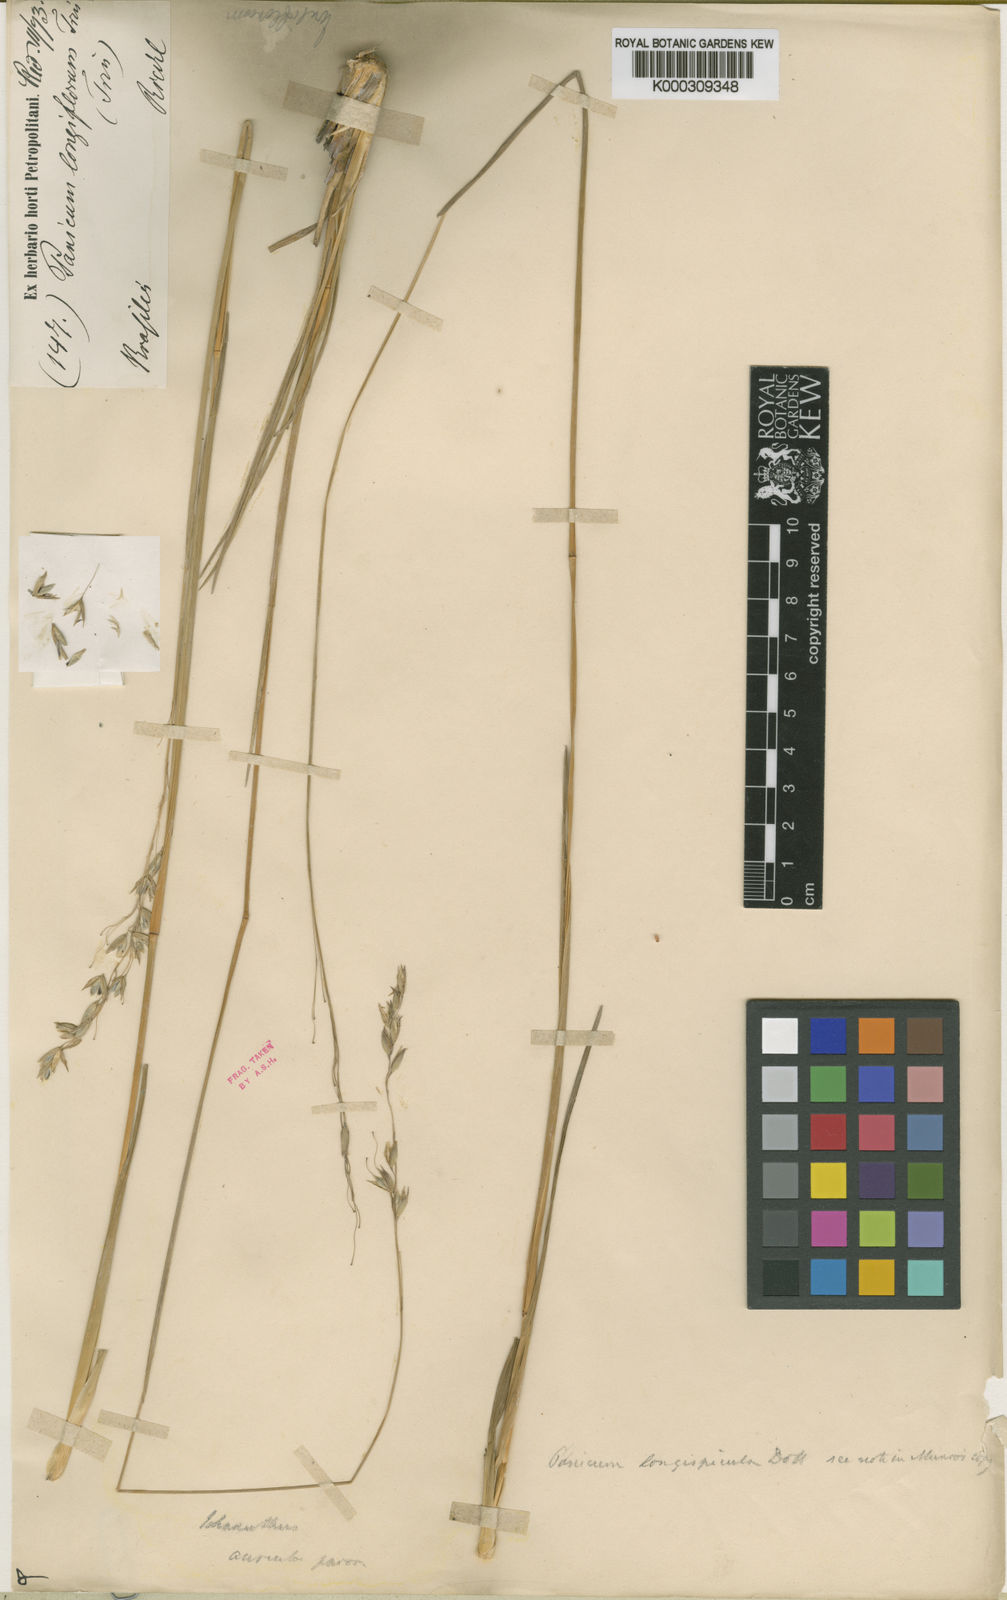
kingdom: Plantae
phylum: Tracheophyta
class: Liliopsida
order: Poales
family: Poaceae
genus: Homolepis
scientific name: Homolepis longispicula
